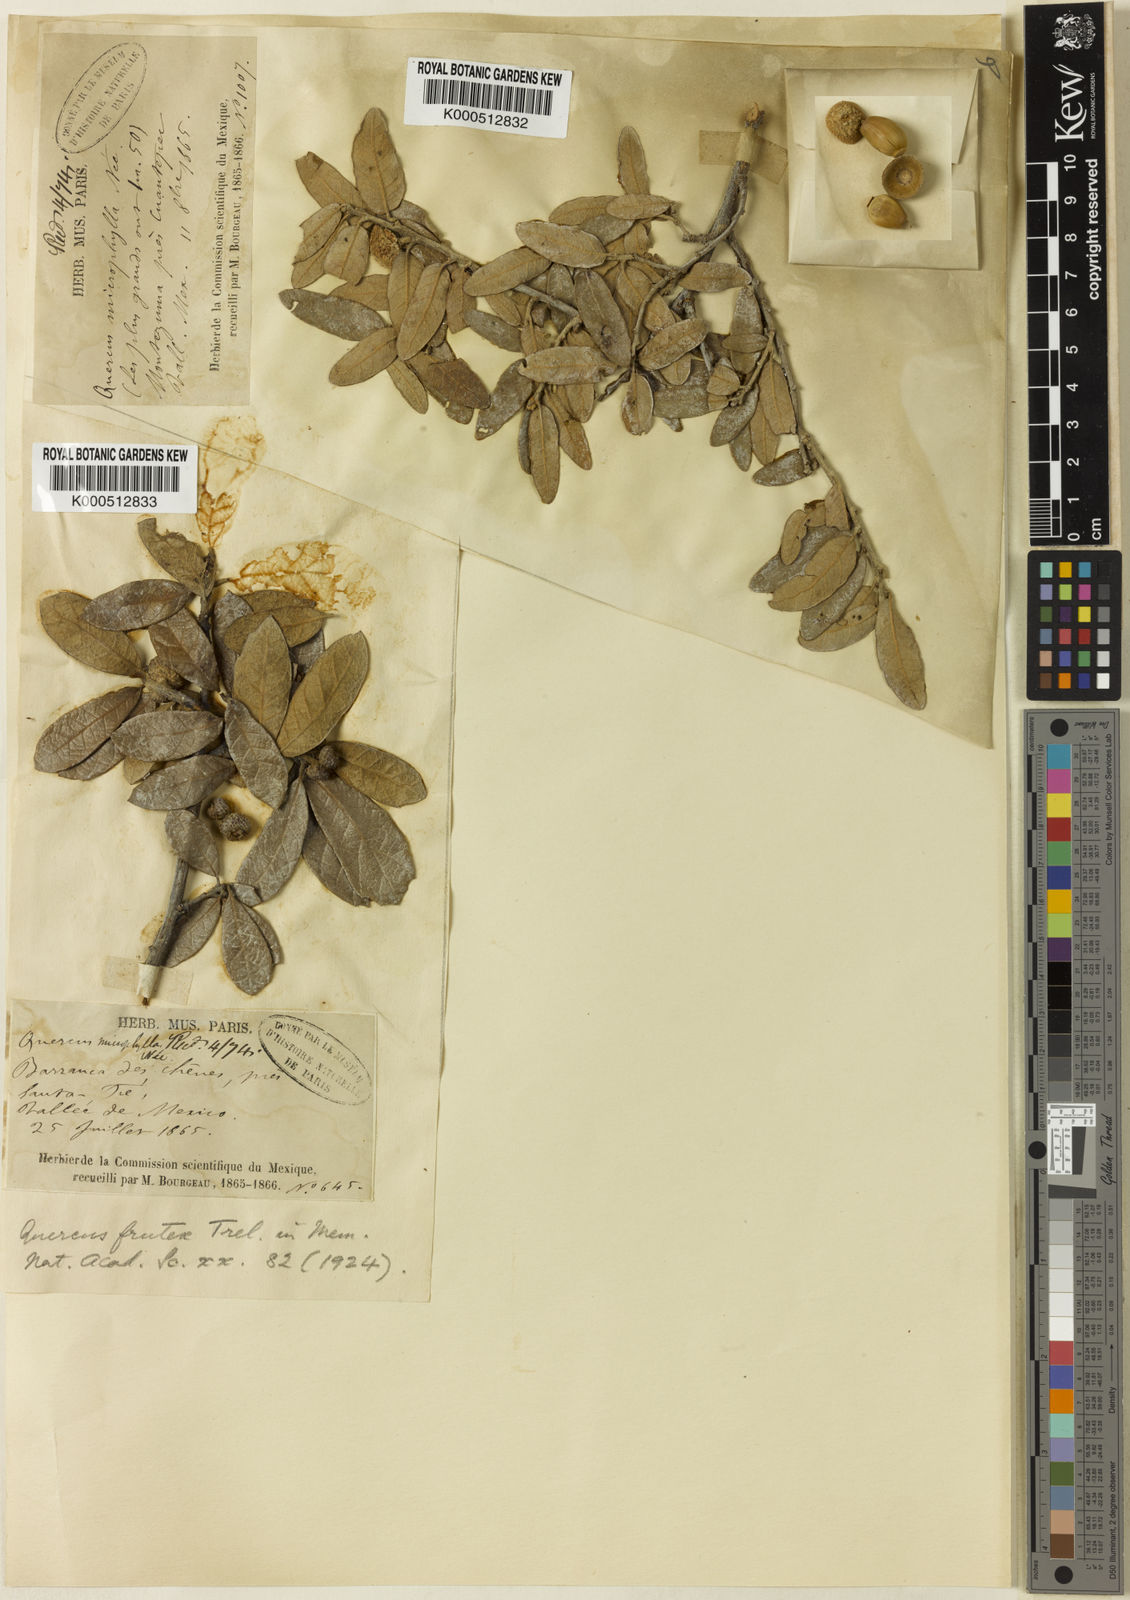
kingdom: Plantae
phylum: Tracheophyta
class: Magnoliopsida
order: Fagales
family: Fagaceae
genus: Quercus
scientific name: Quercus frutex
